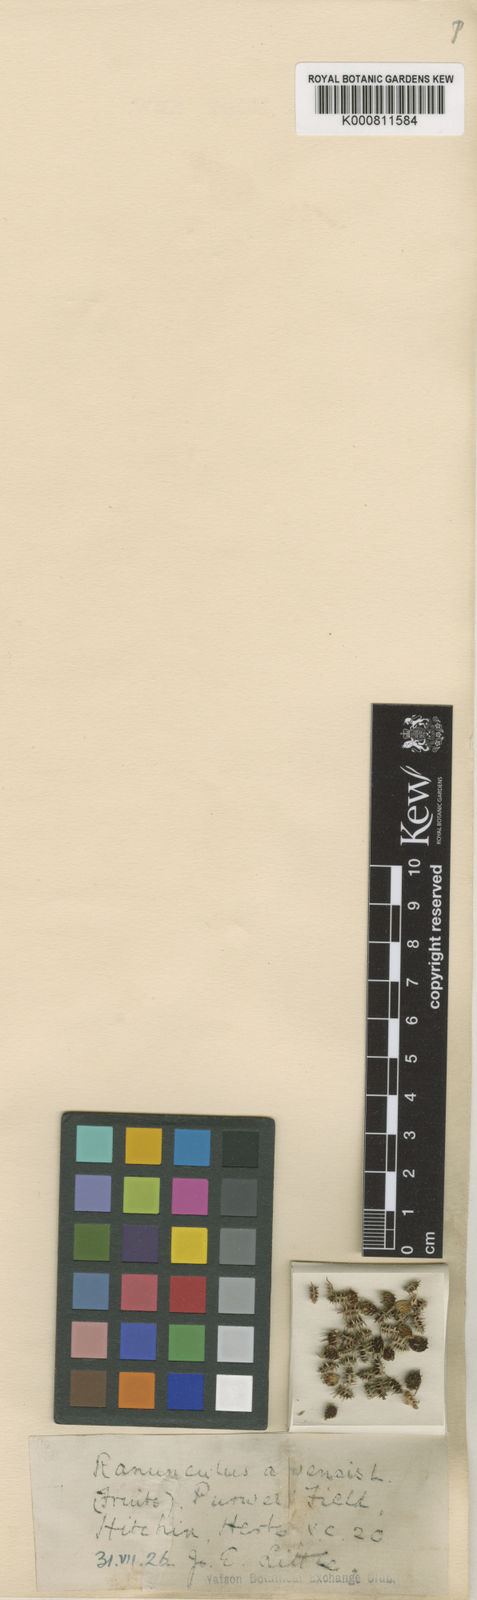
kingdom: Plantae
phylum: Tracheophyta
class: Magnoliopsida
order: Ranunculales
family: Ranunculaceae
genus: Ranunculus
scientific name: Ranunculus arvensis
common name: Corn buttercup
